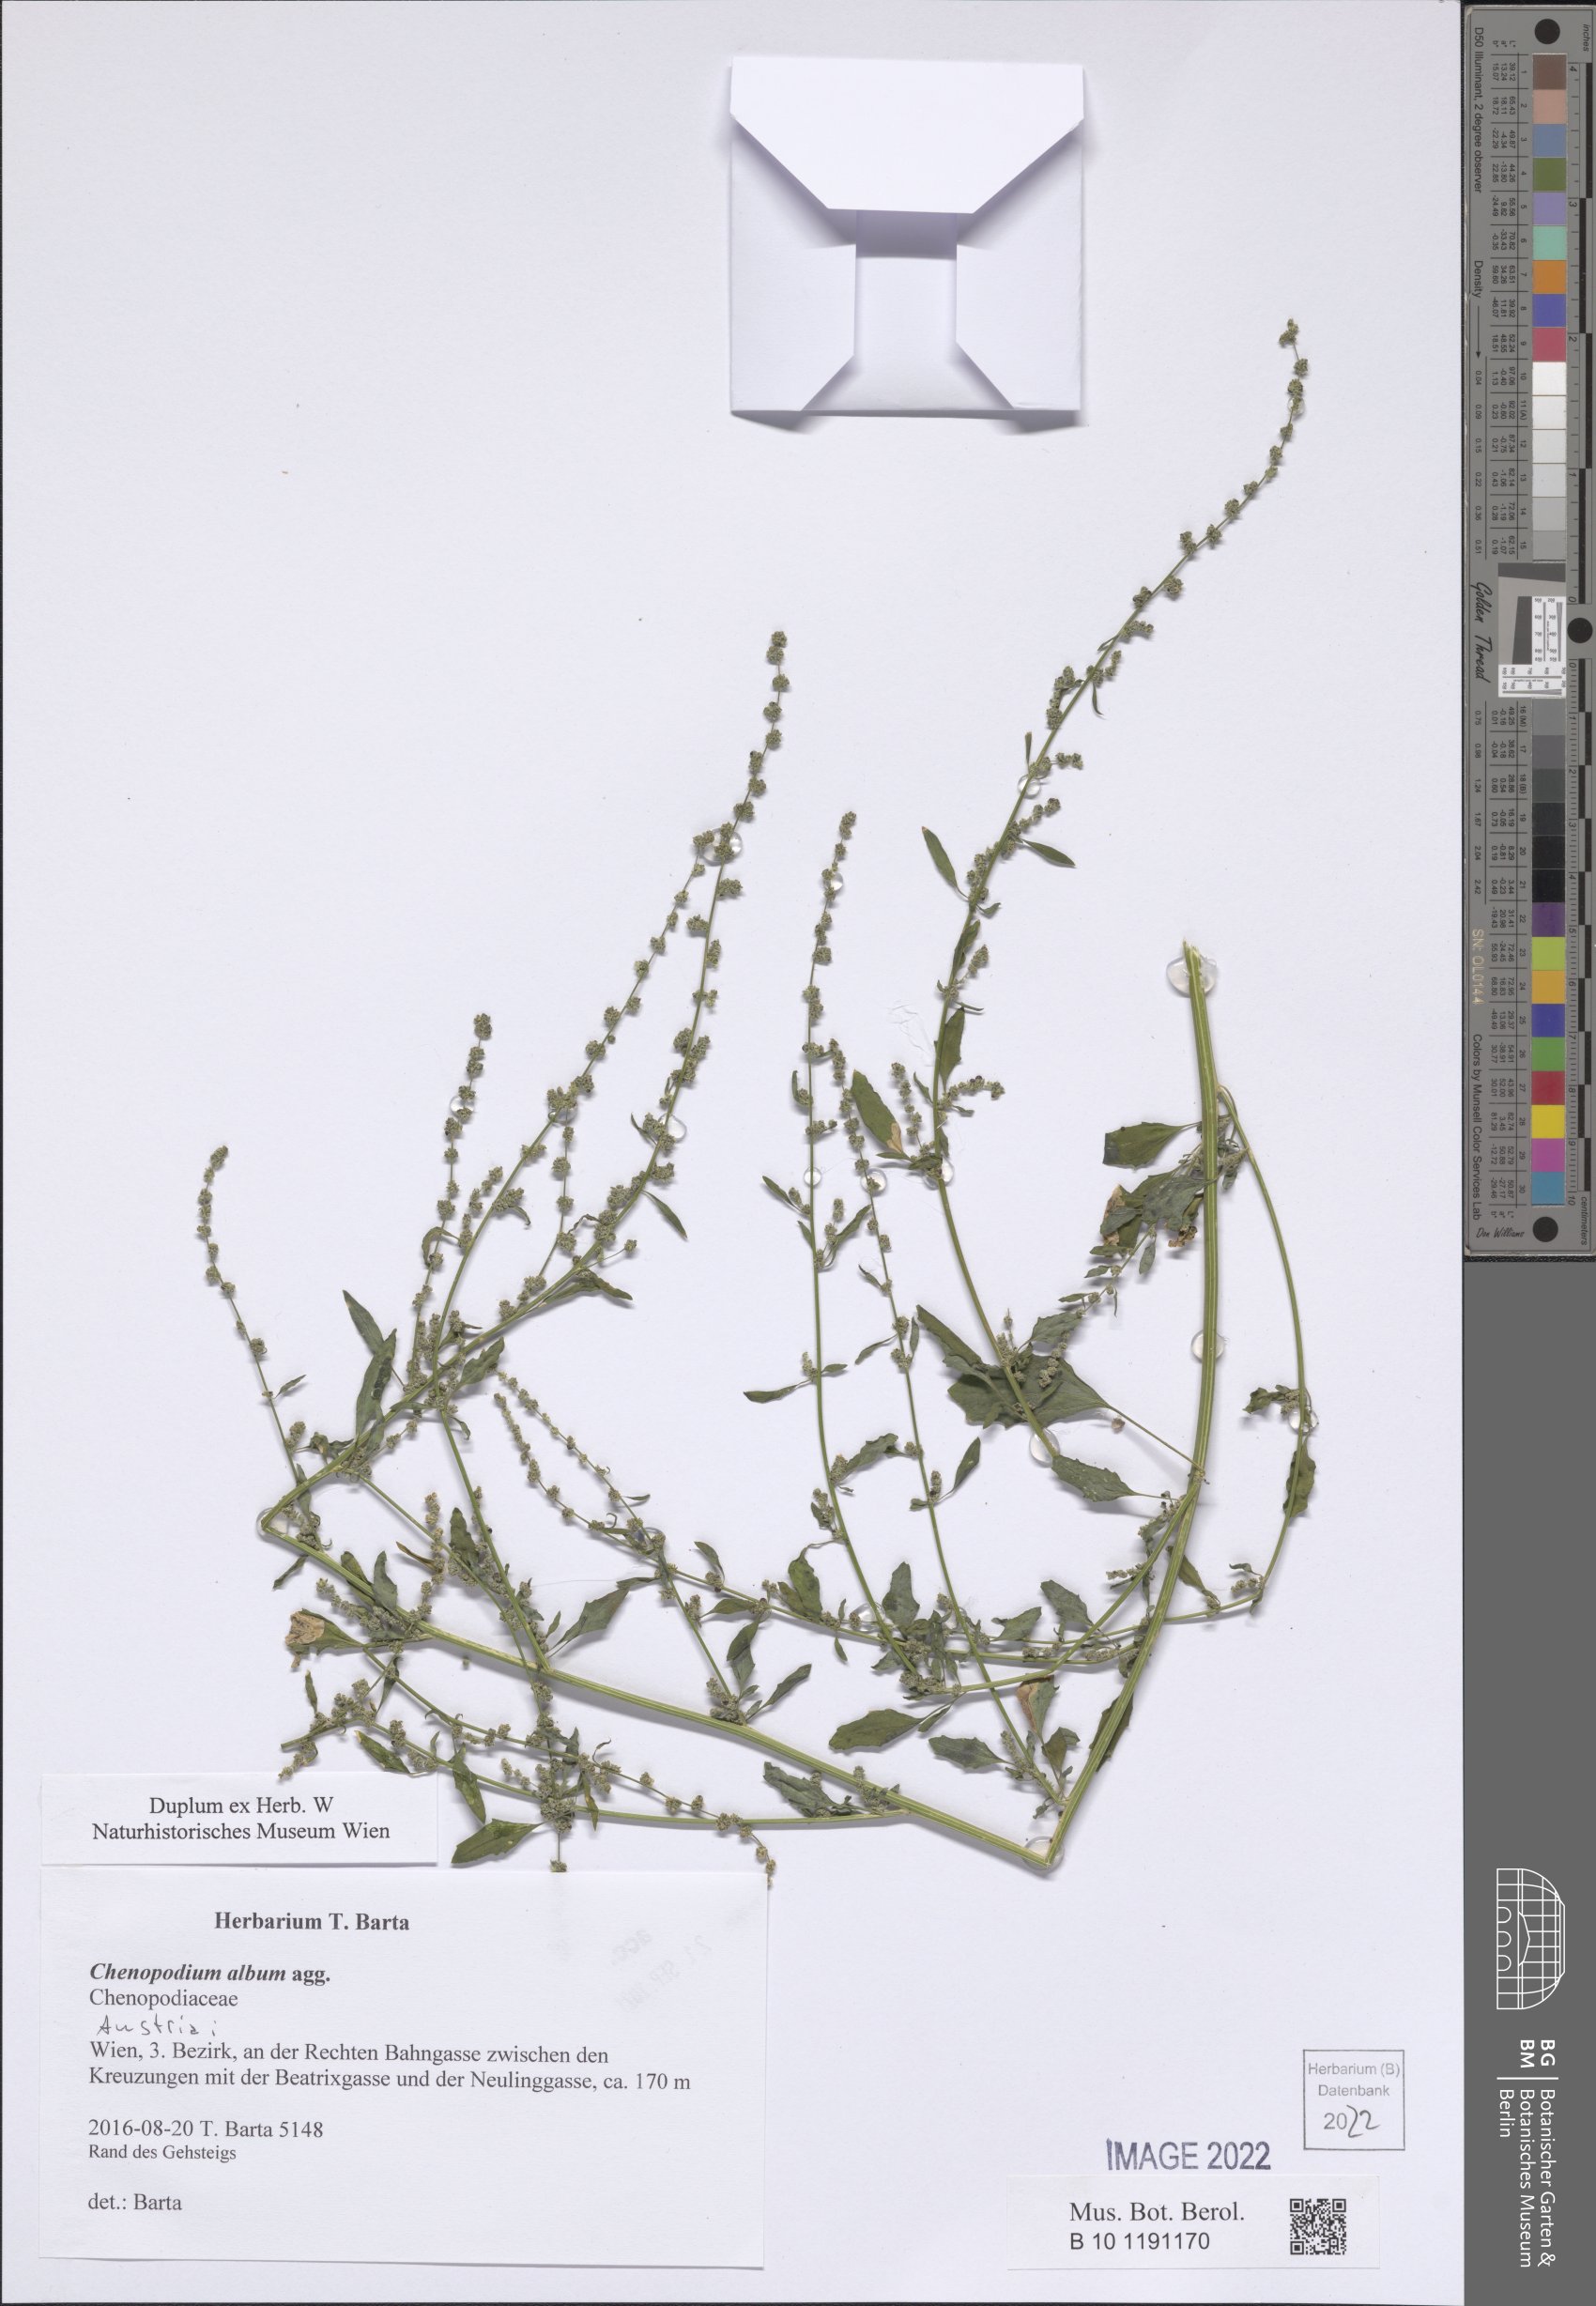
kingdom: Plantae
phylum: Tracheophyta
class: Magnoliopsida
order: Caryophyllales
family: Amaranthaceae
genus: Chenopodium
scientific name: Chenopodium album
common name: Fat-hen
